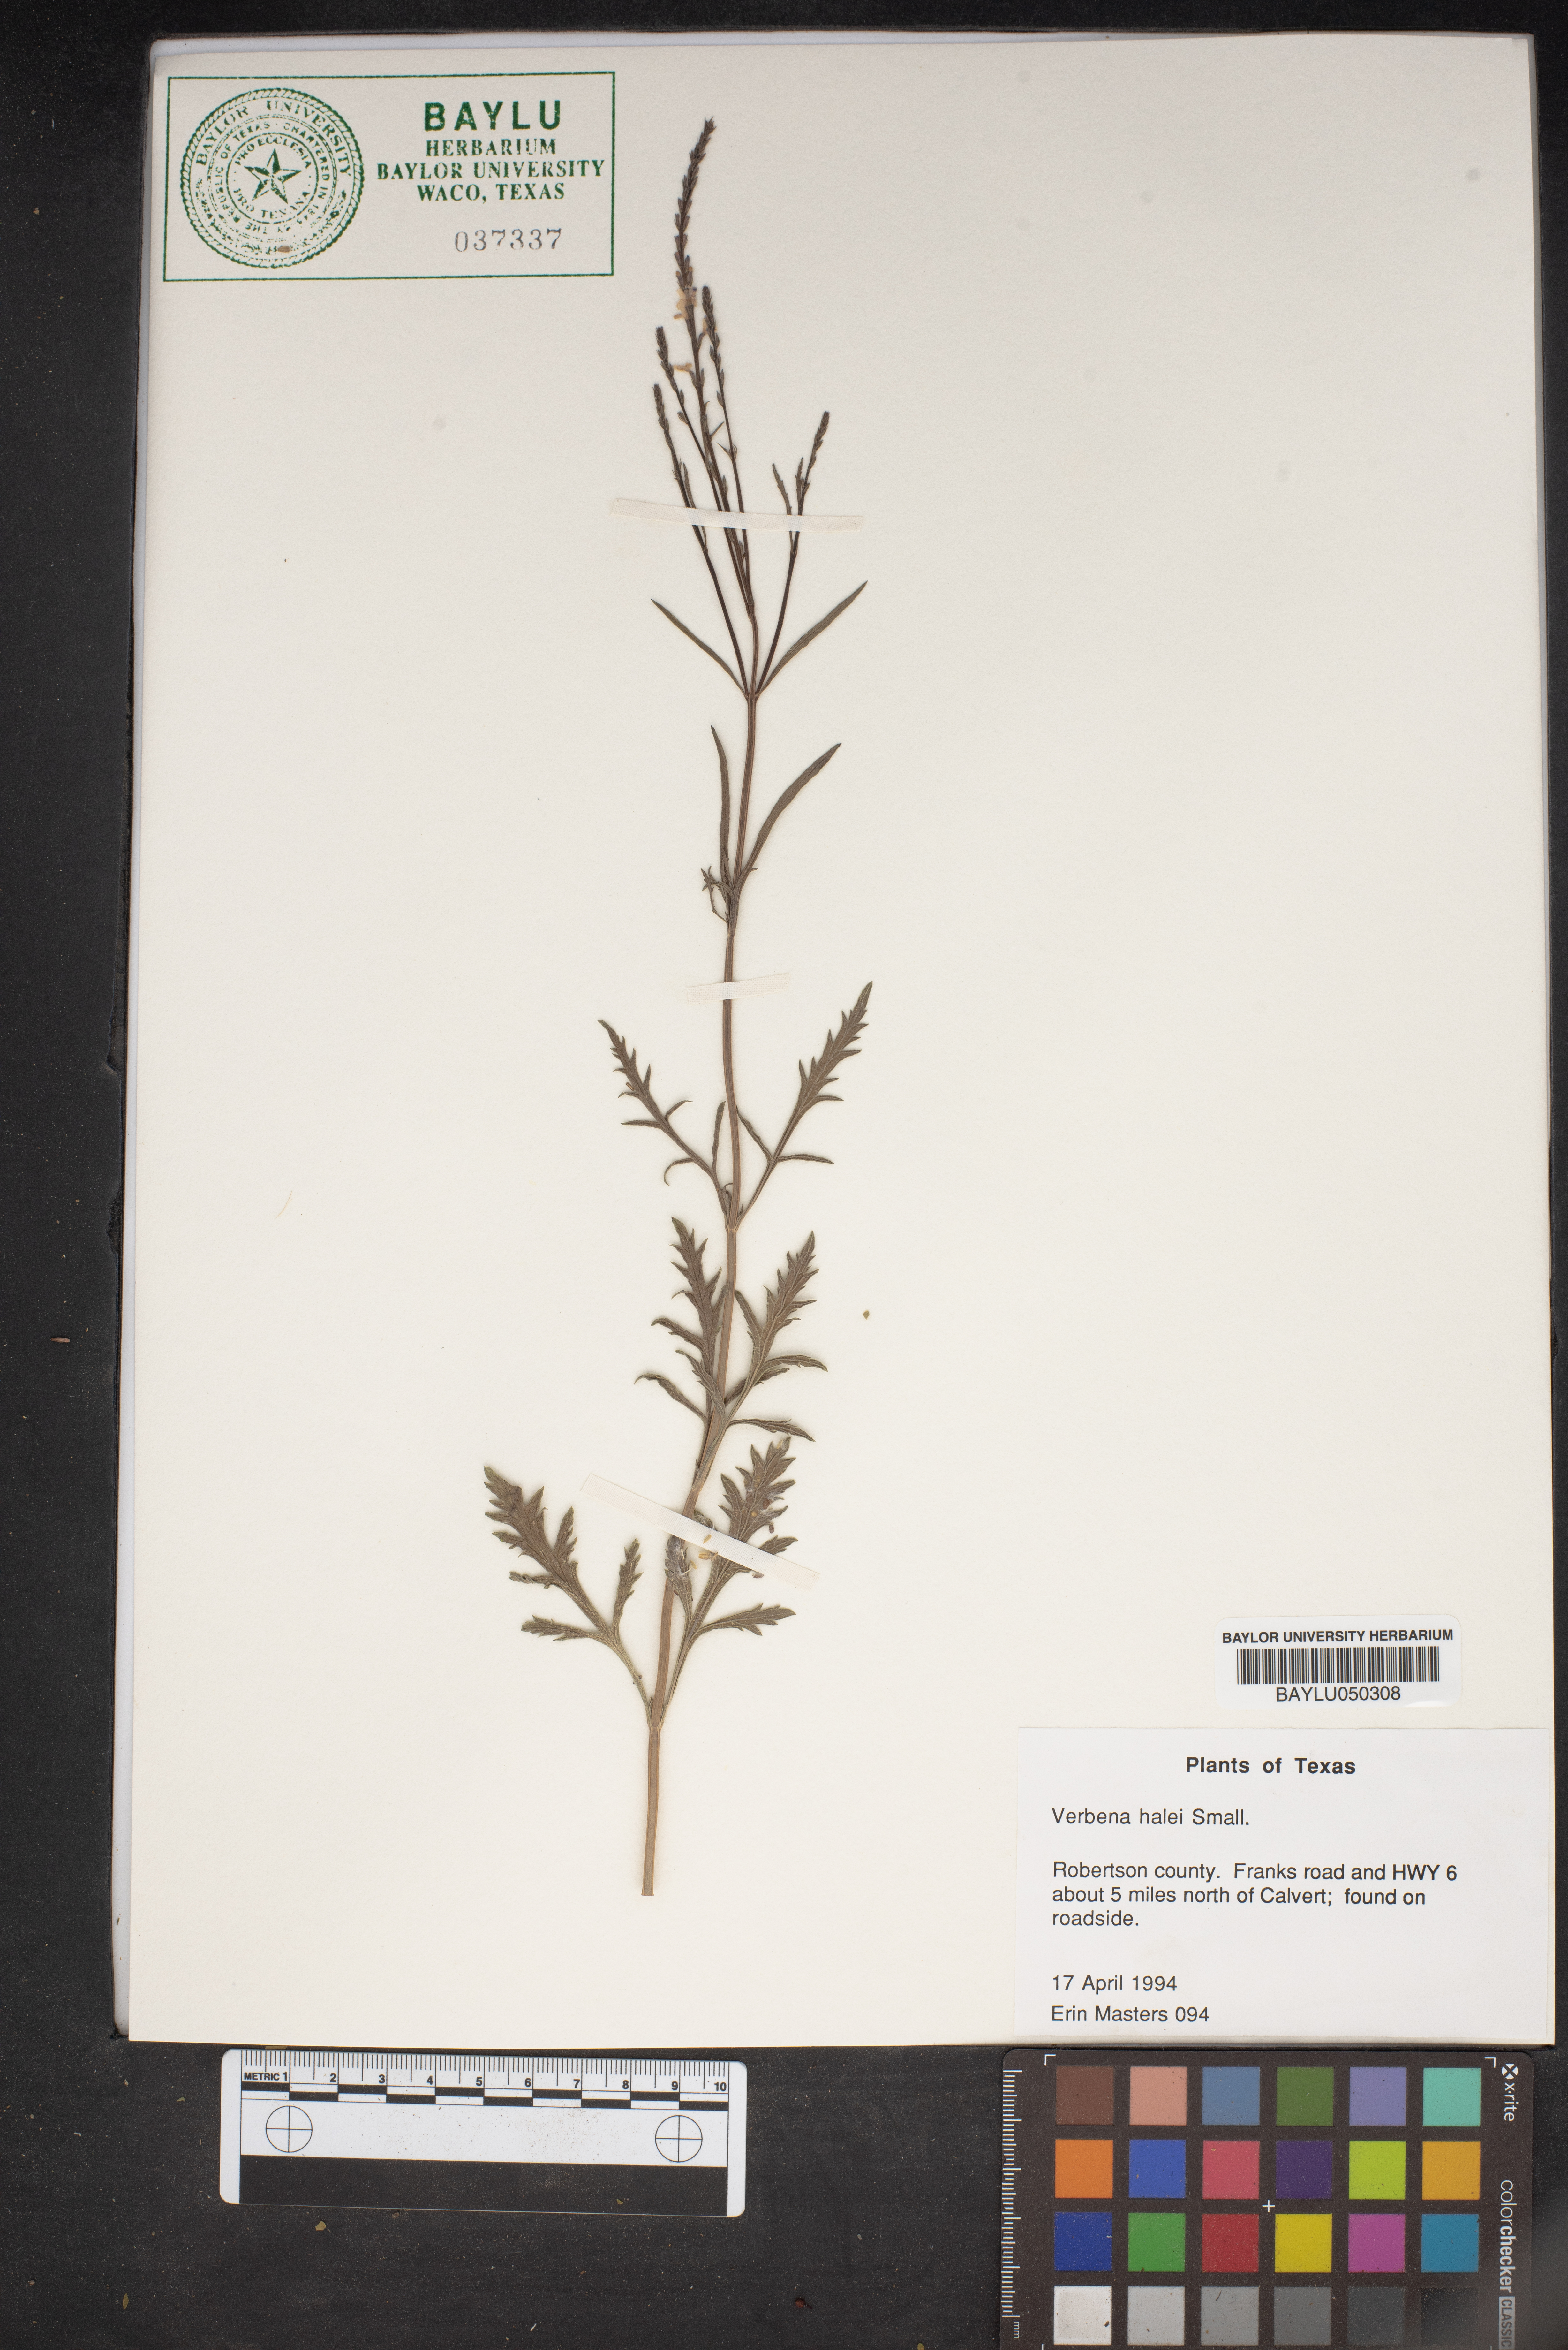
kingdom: Plantae
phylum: Tracheophyta
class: Magnoliopsida
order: Lamiales
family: Verbenaceae
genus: Verbena
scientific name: Verbena halei
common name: Texas vervain
